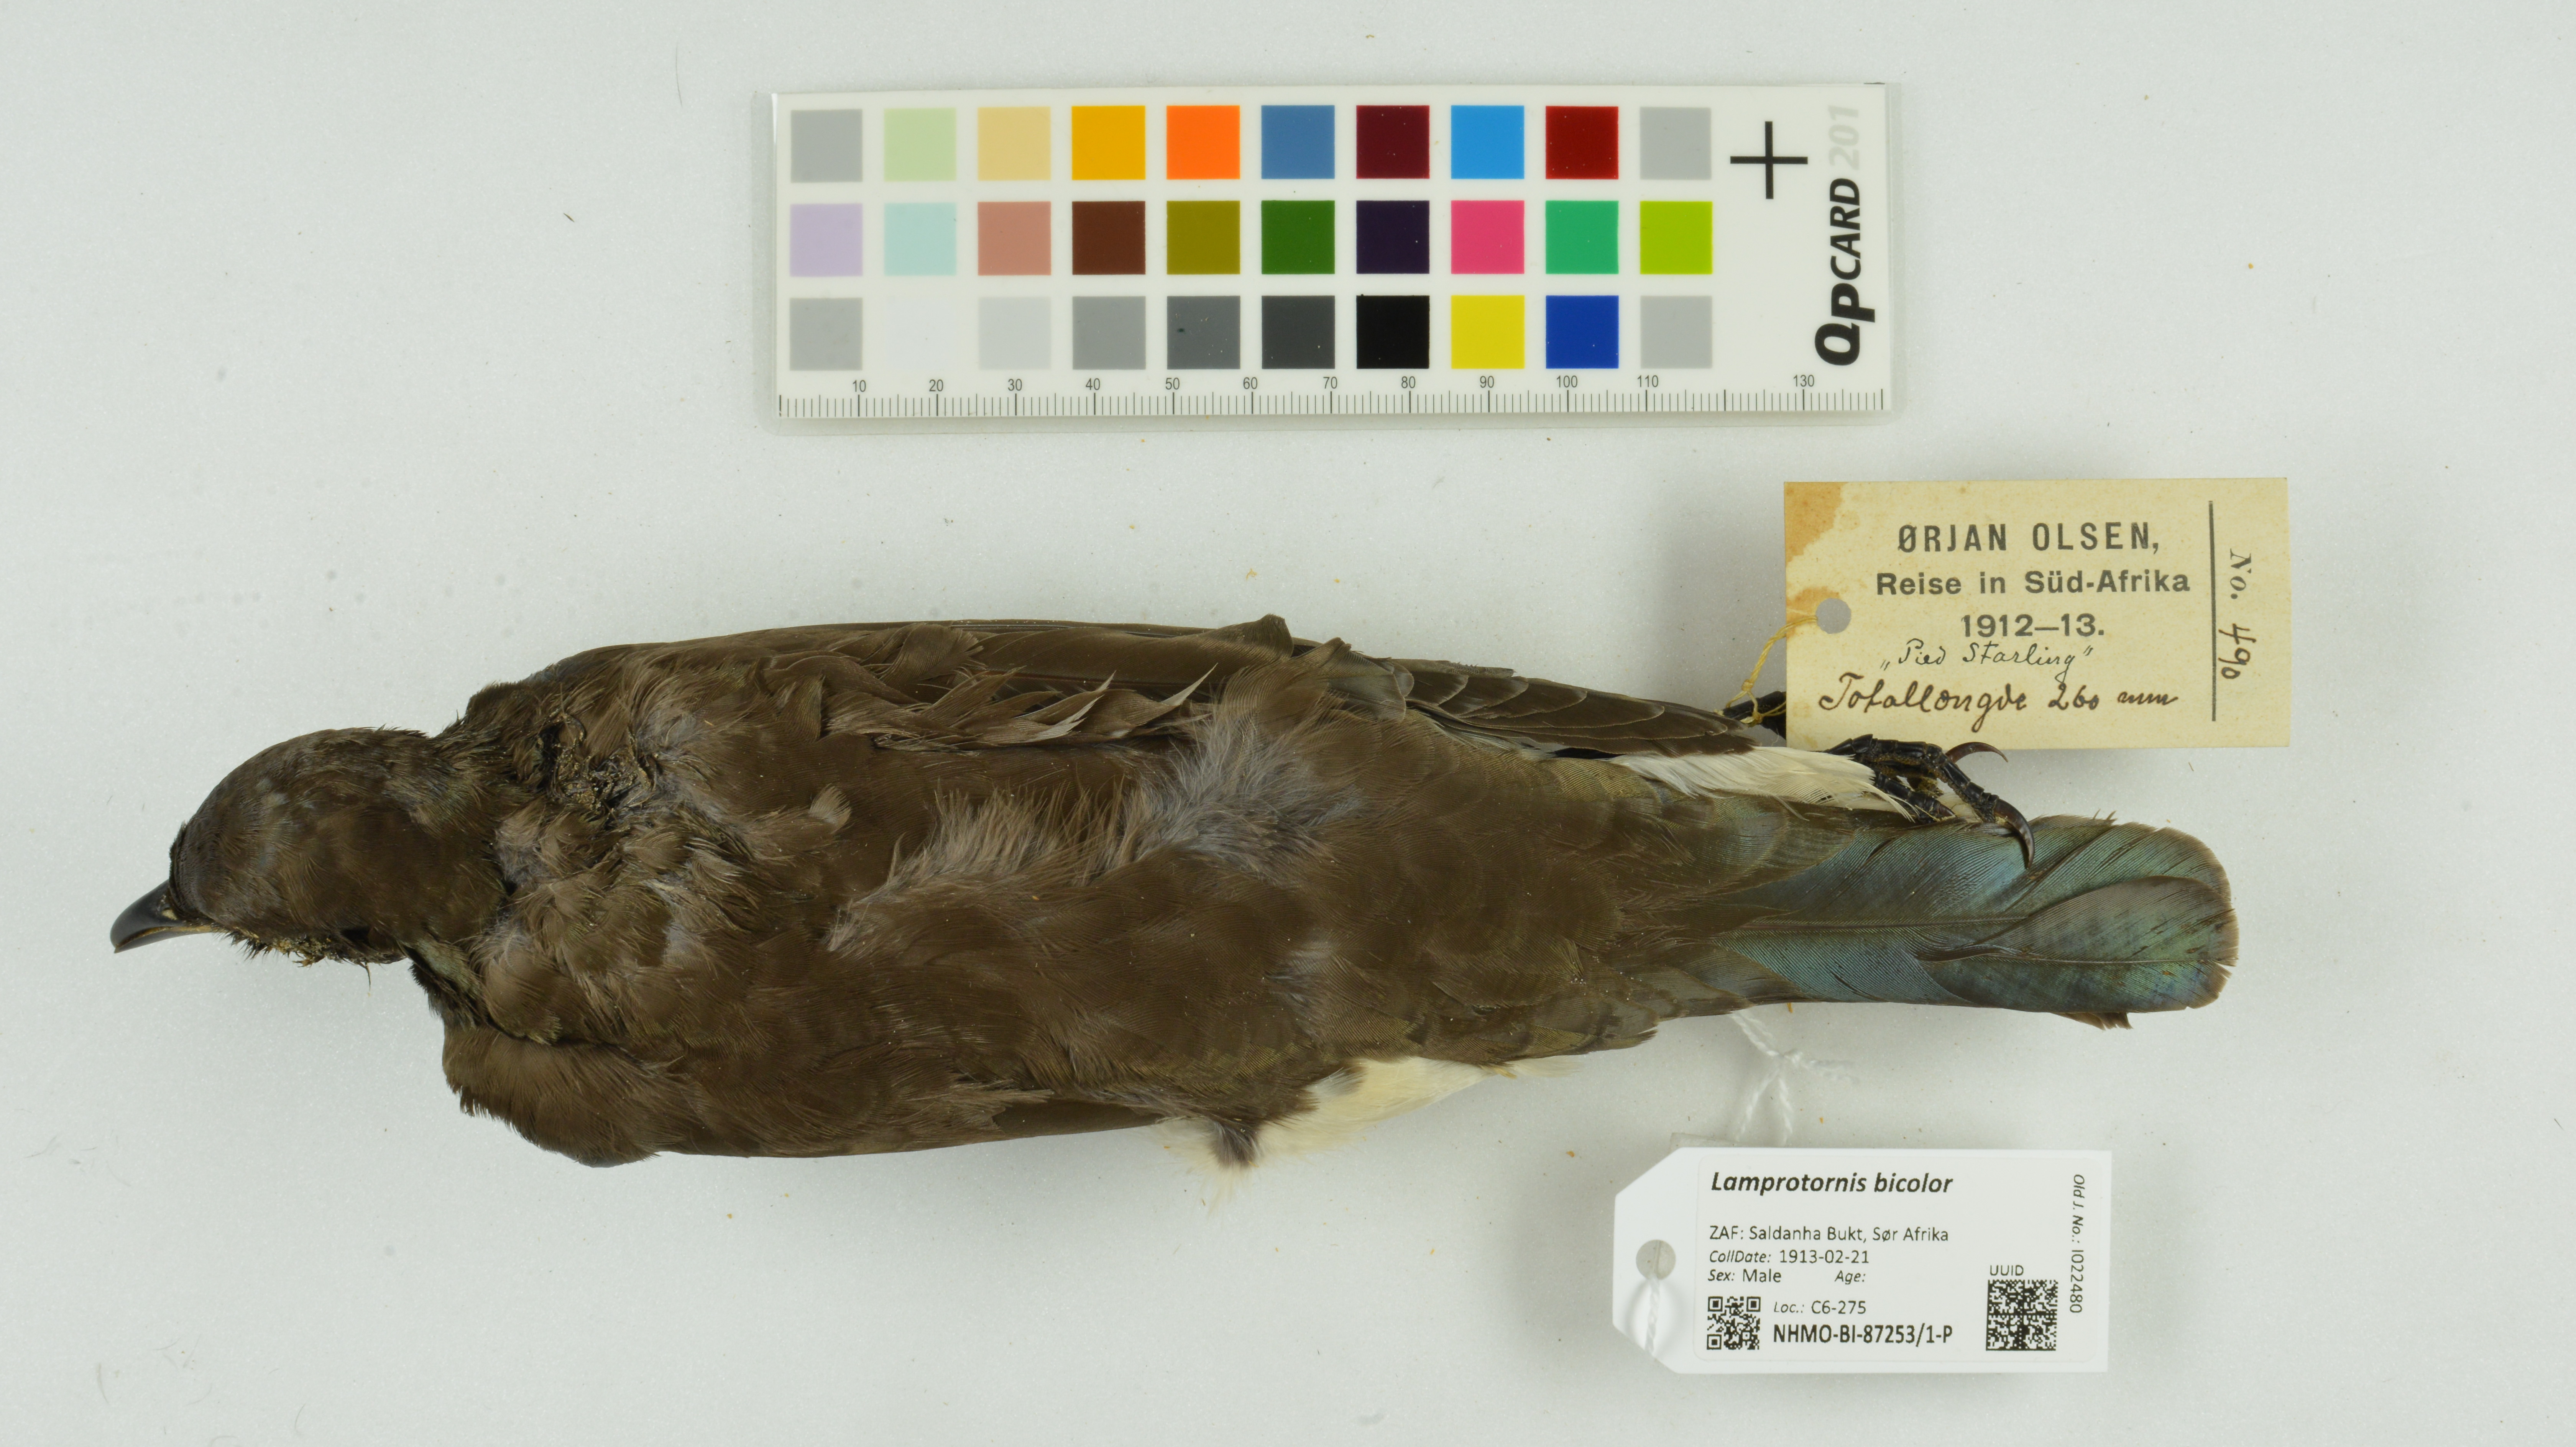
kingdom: Animalia
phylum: Chordata
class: Aves
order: Passeriformes
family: Sturnidae
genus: Lamprotornis
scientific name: Lamprotornis bicolor
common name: Pied starling
